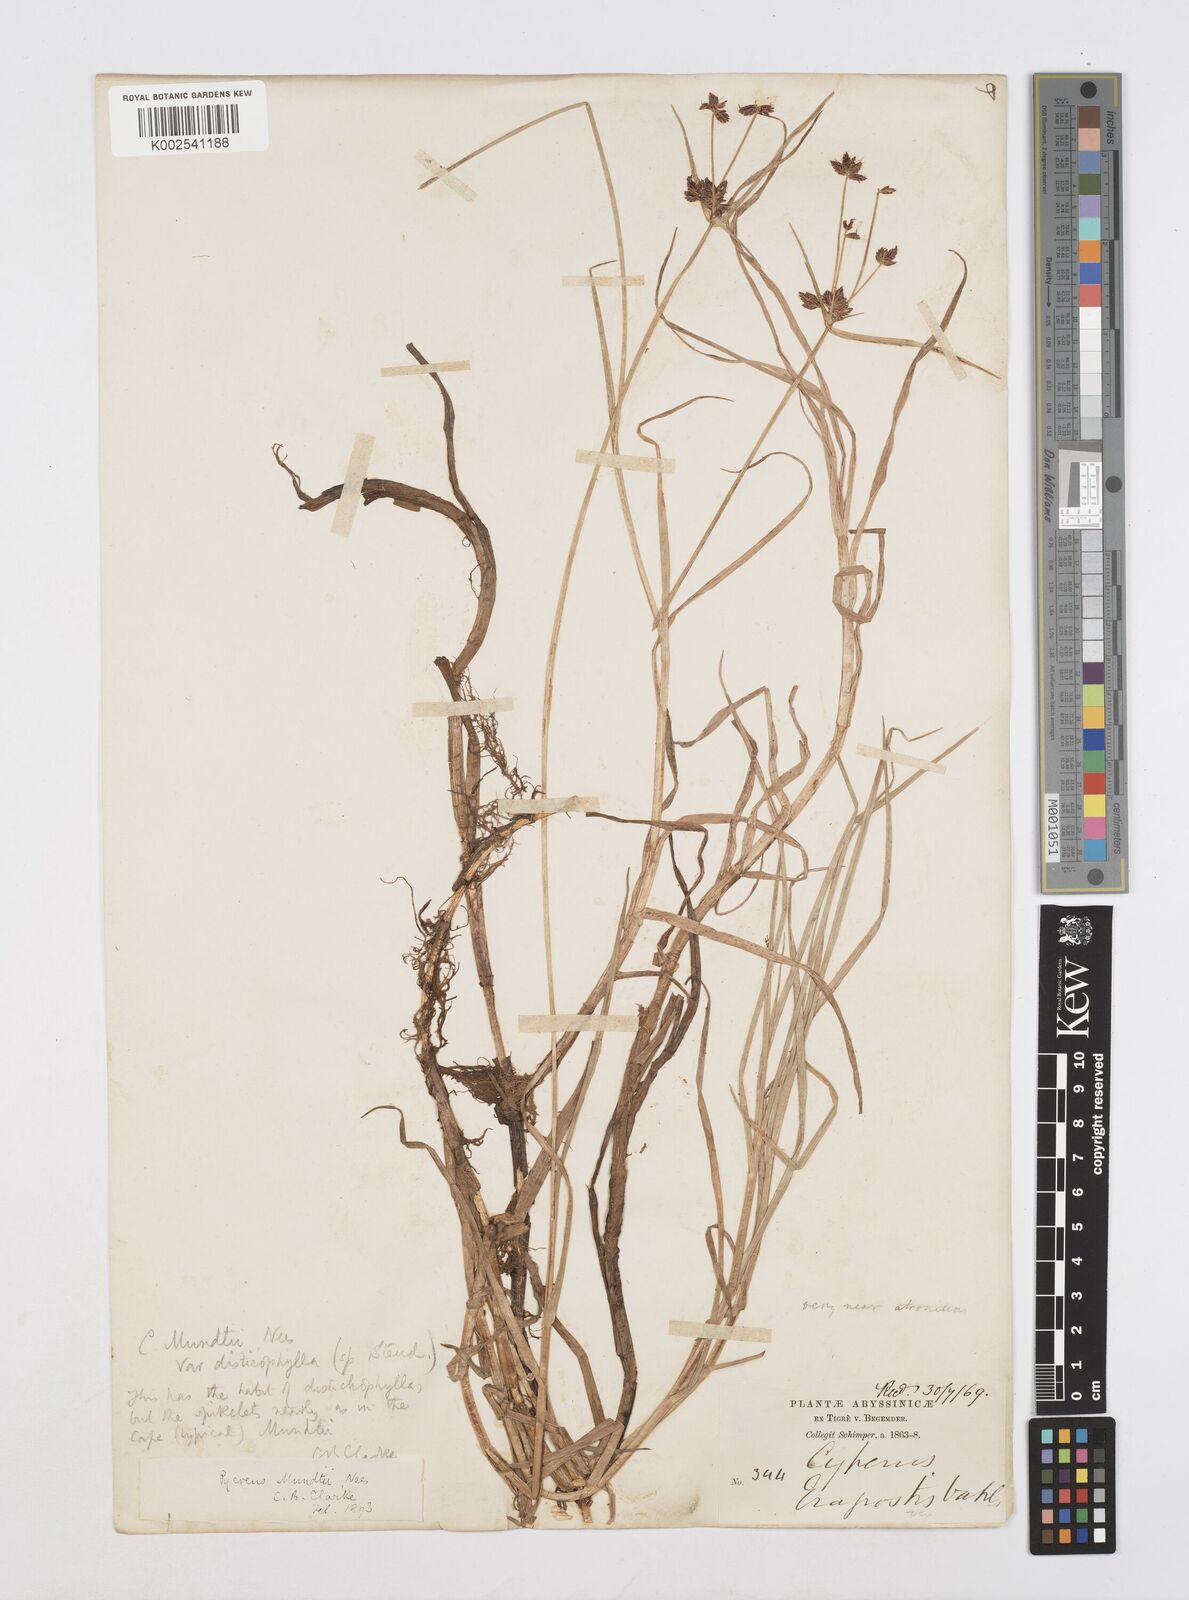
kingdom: Plantae
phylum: Tracheophyta
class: Liliopsida
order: Poales
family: Cyperaceae
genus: Cyperus
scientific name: Cyperus mundii
